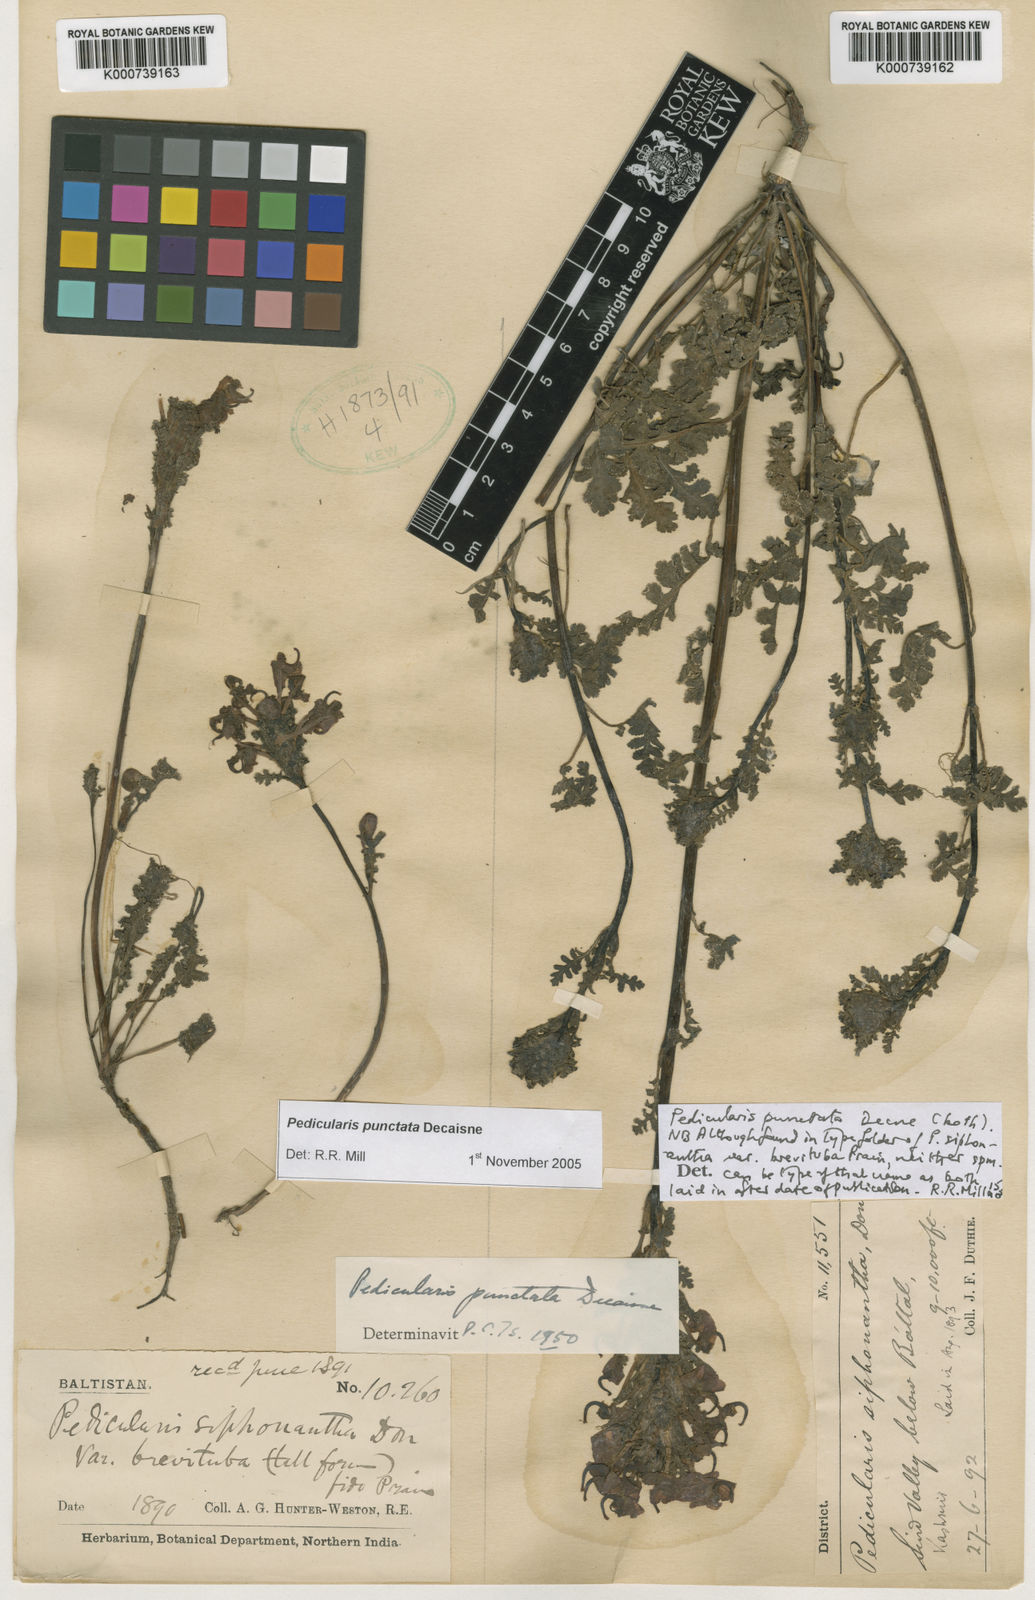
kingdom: Plantae
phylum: Tracheophyta
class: Magnoliopsida
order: Lamiales
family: Orobanchaceae
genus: Pedicularis
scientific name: Pedicularis punctata
